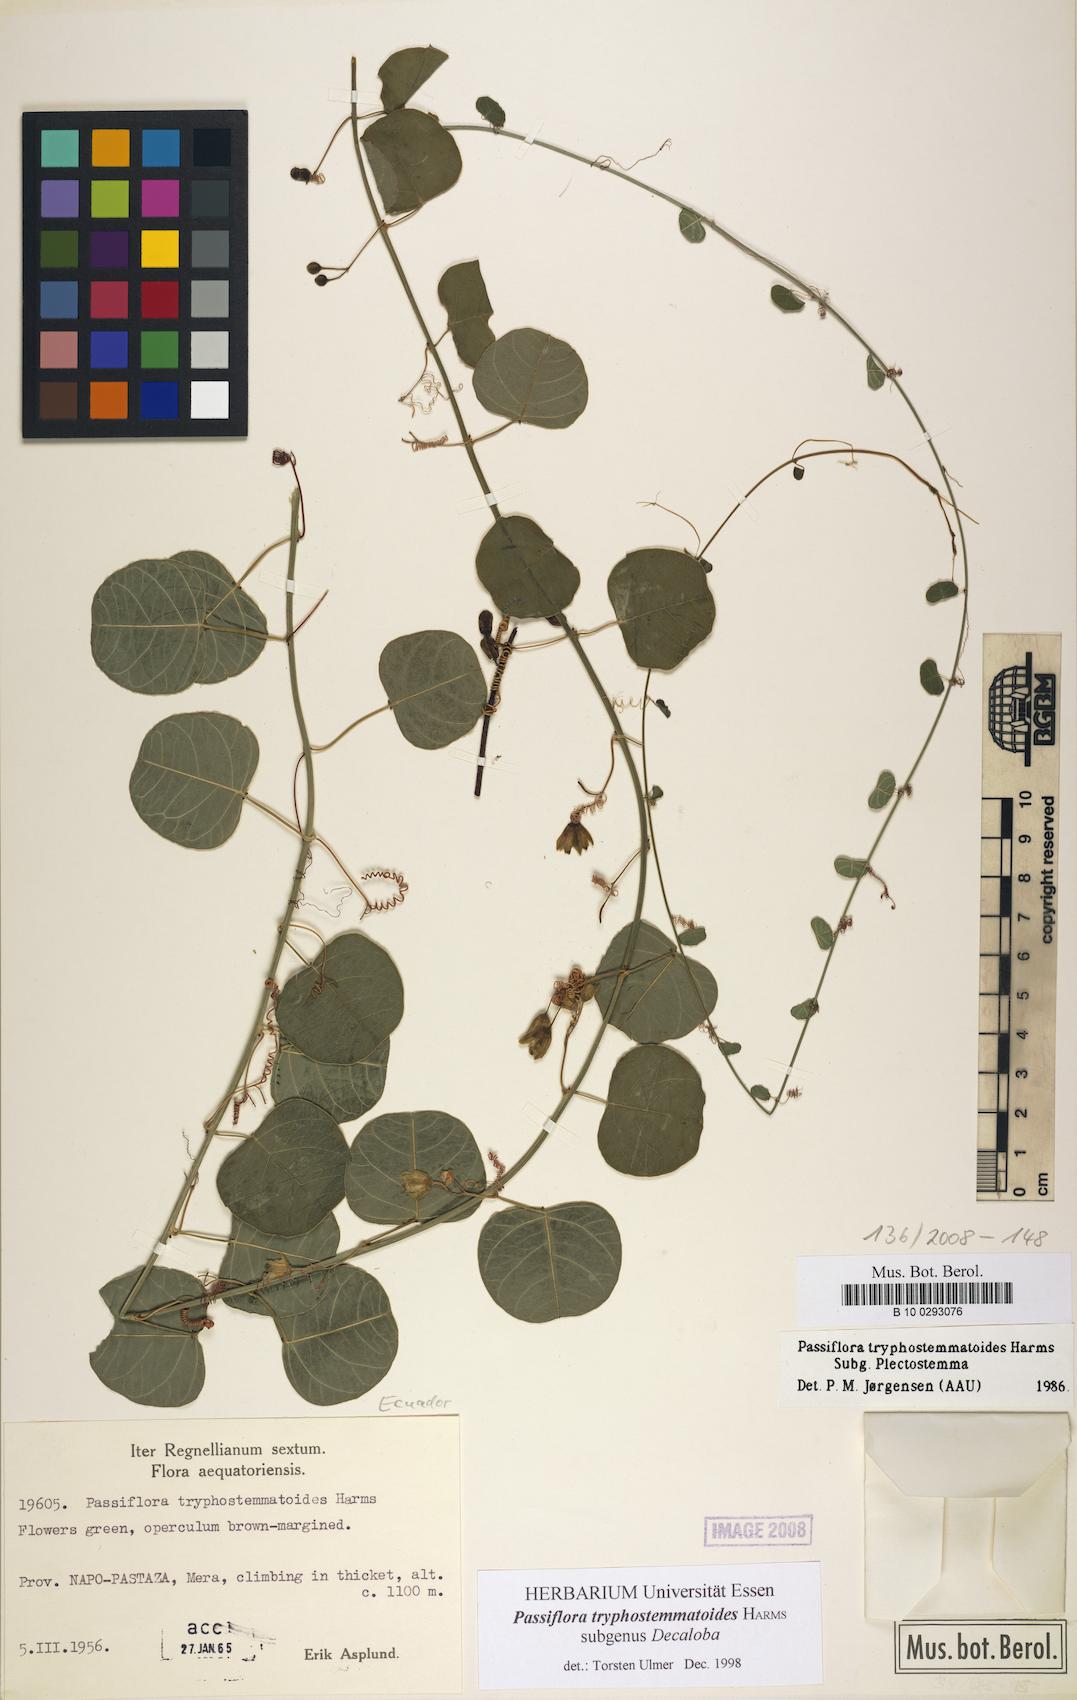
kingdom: Plantae
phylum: Tracheophyta
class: Magnoliopsida
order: Malpighiales
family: Passifloraceae
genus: Passiflora
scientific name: Passiflora tryphostemmatoides
